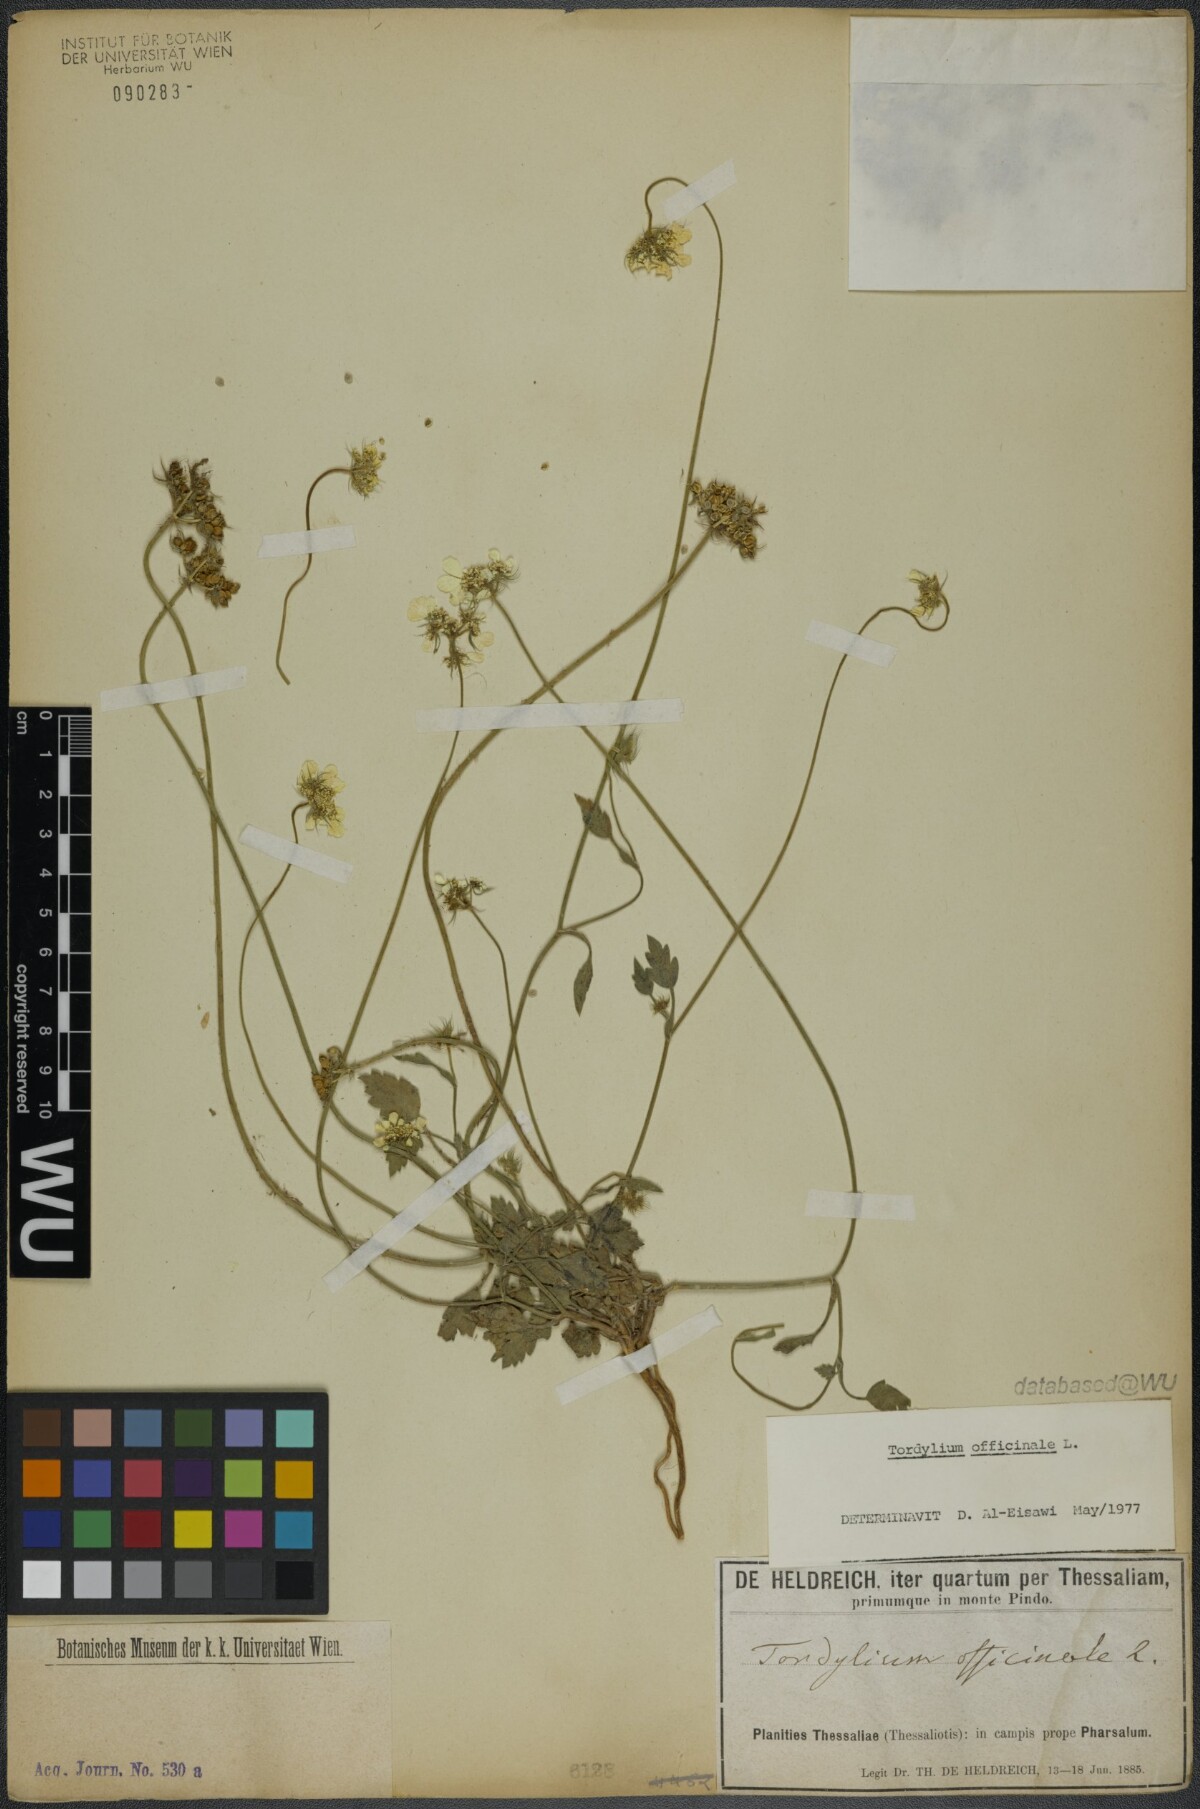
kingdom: Plantae
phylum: Tracheophyta
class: Magnoliopsida
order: Apiales
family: Apiaceae
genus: Tordylium
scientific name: Tordylium officinale
